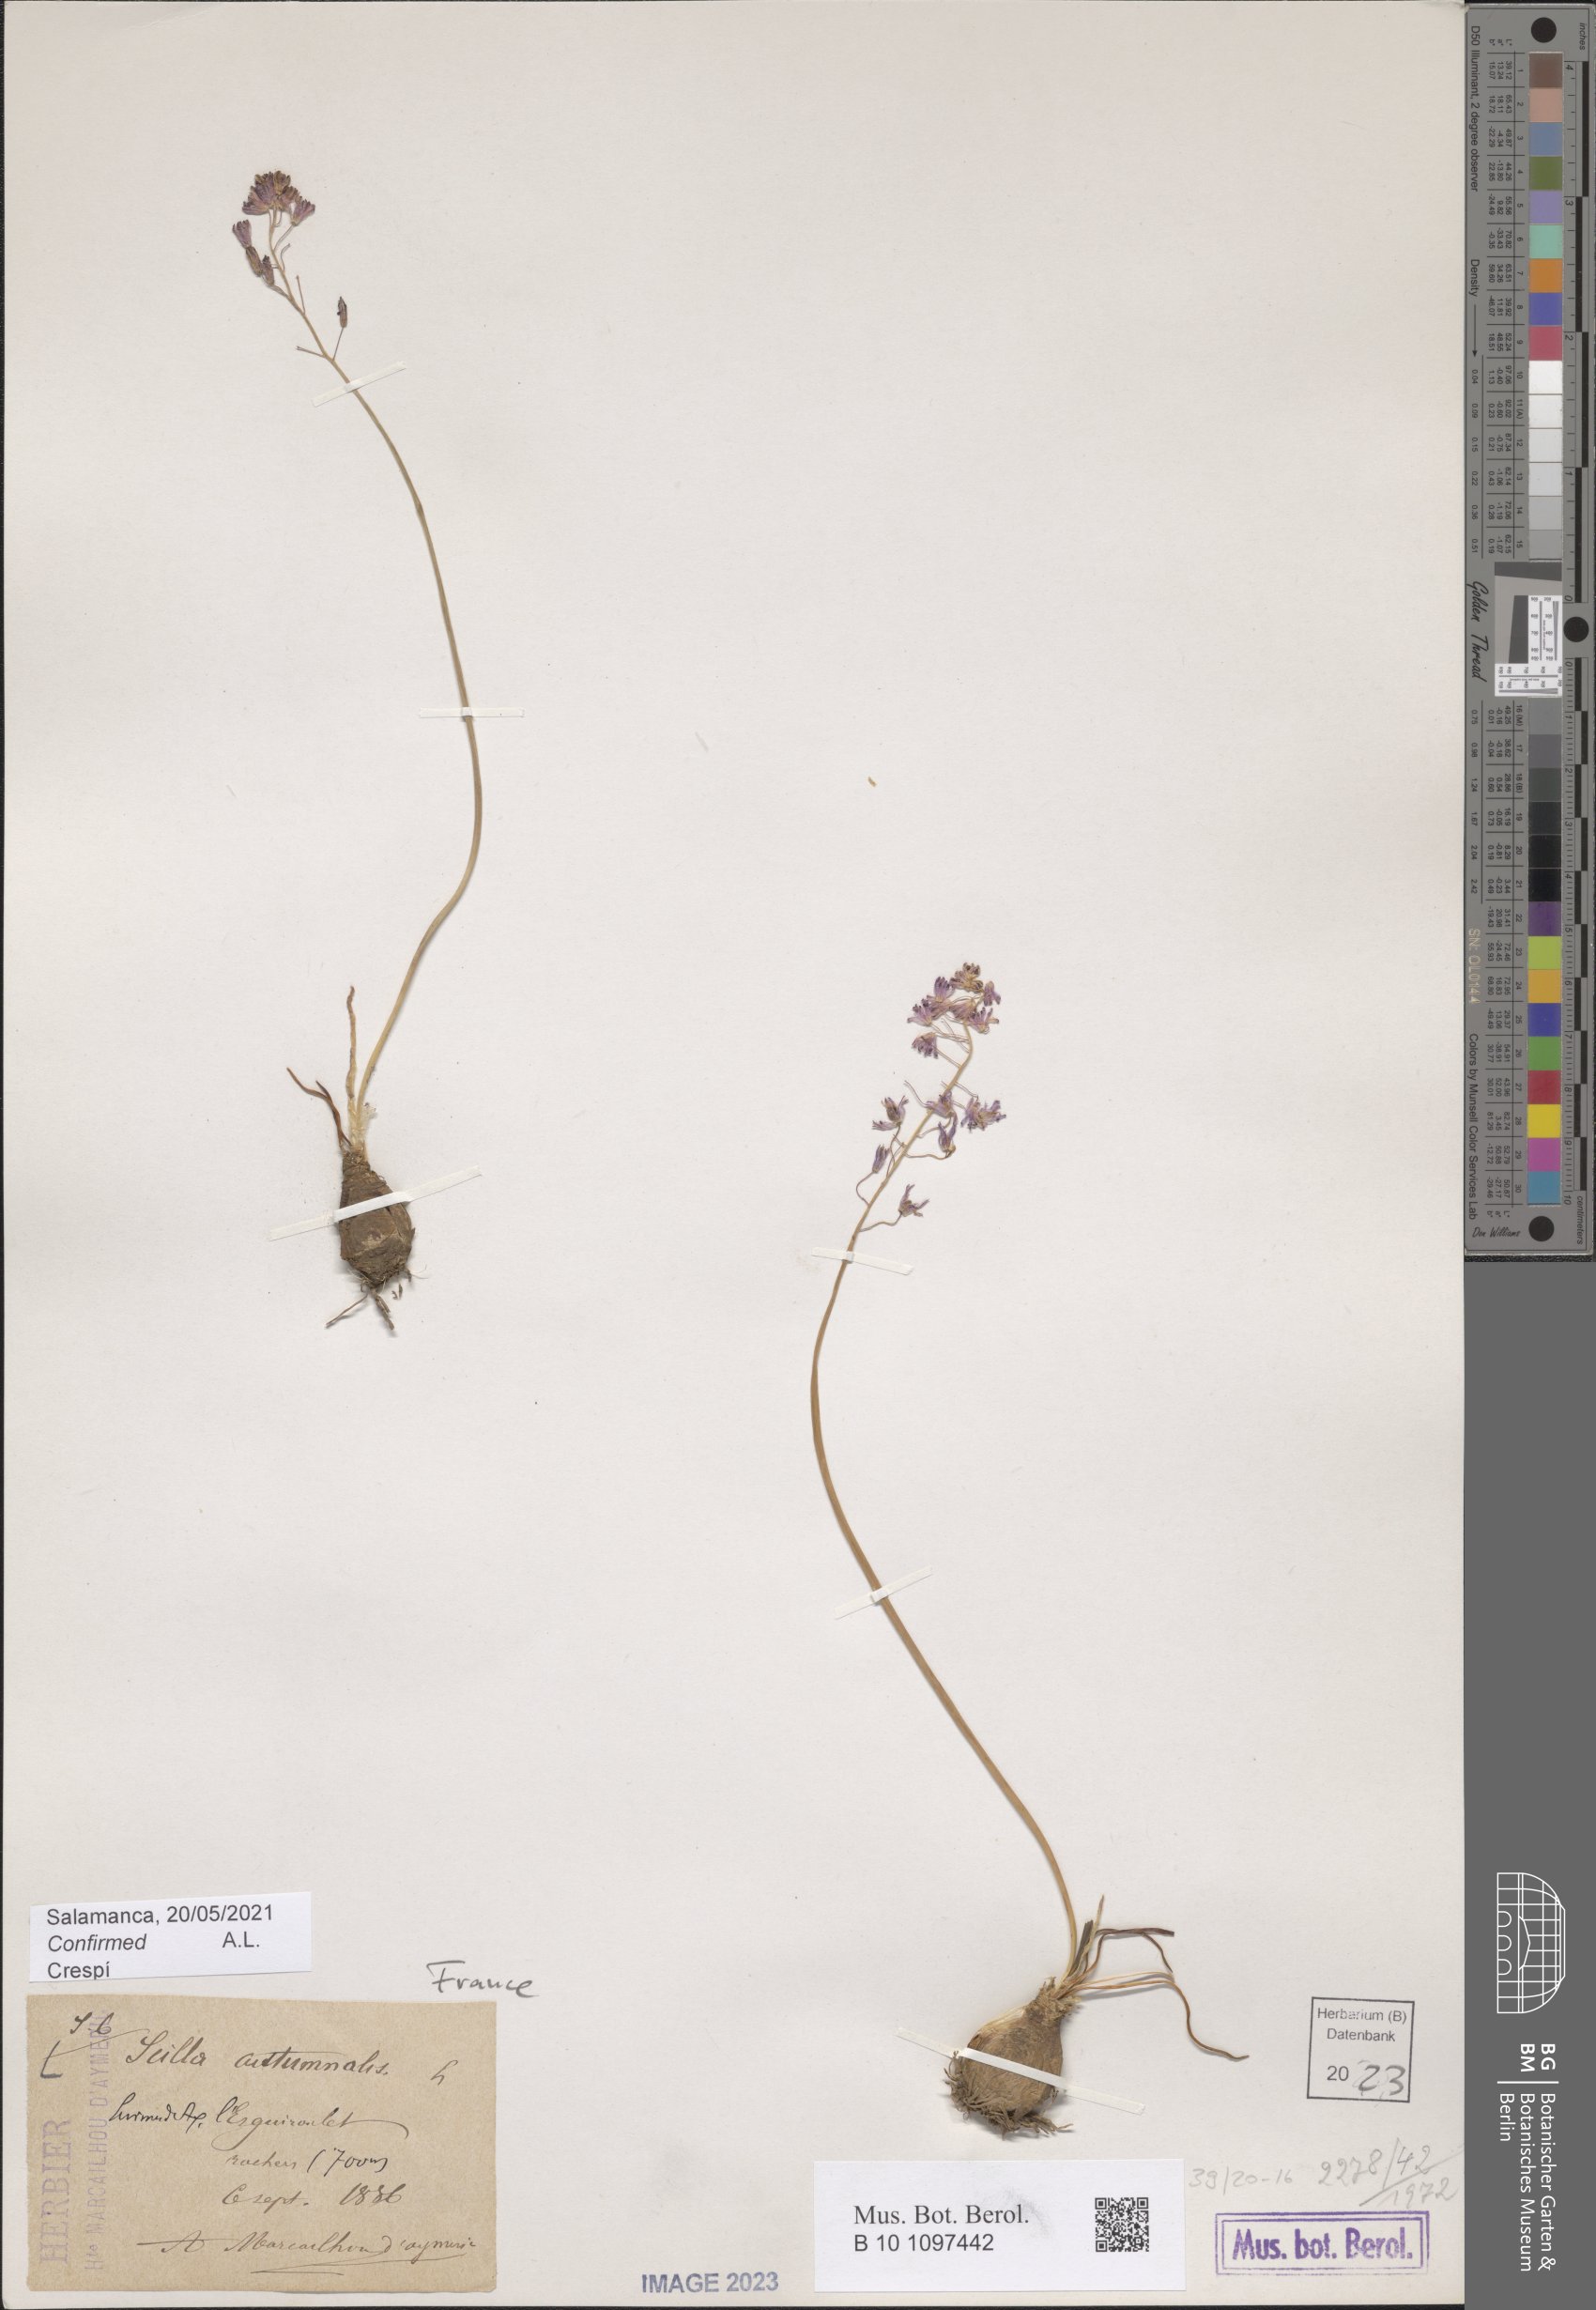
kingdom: Plantae
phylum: Tracheophyta
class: Liliopsida
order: Asparagales
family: Asparagaceae
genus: Prospero
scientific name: Prospero autumnale
